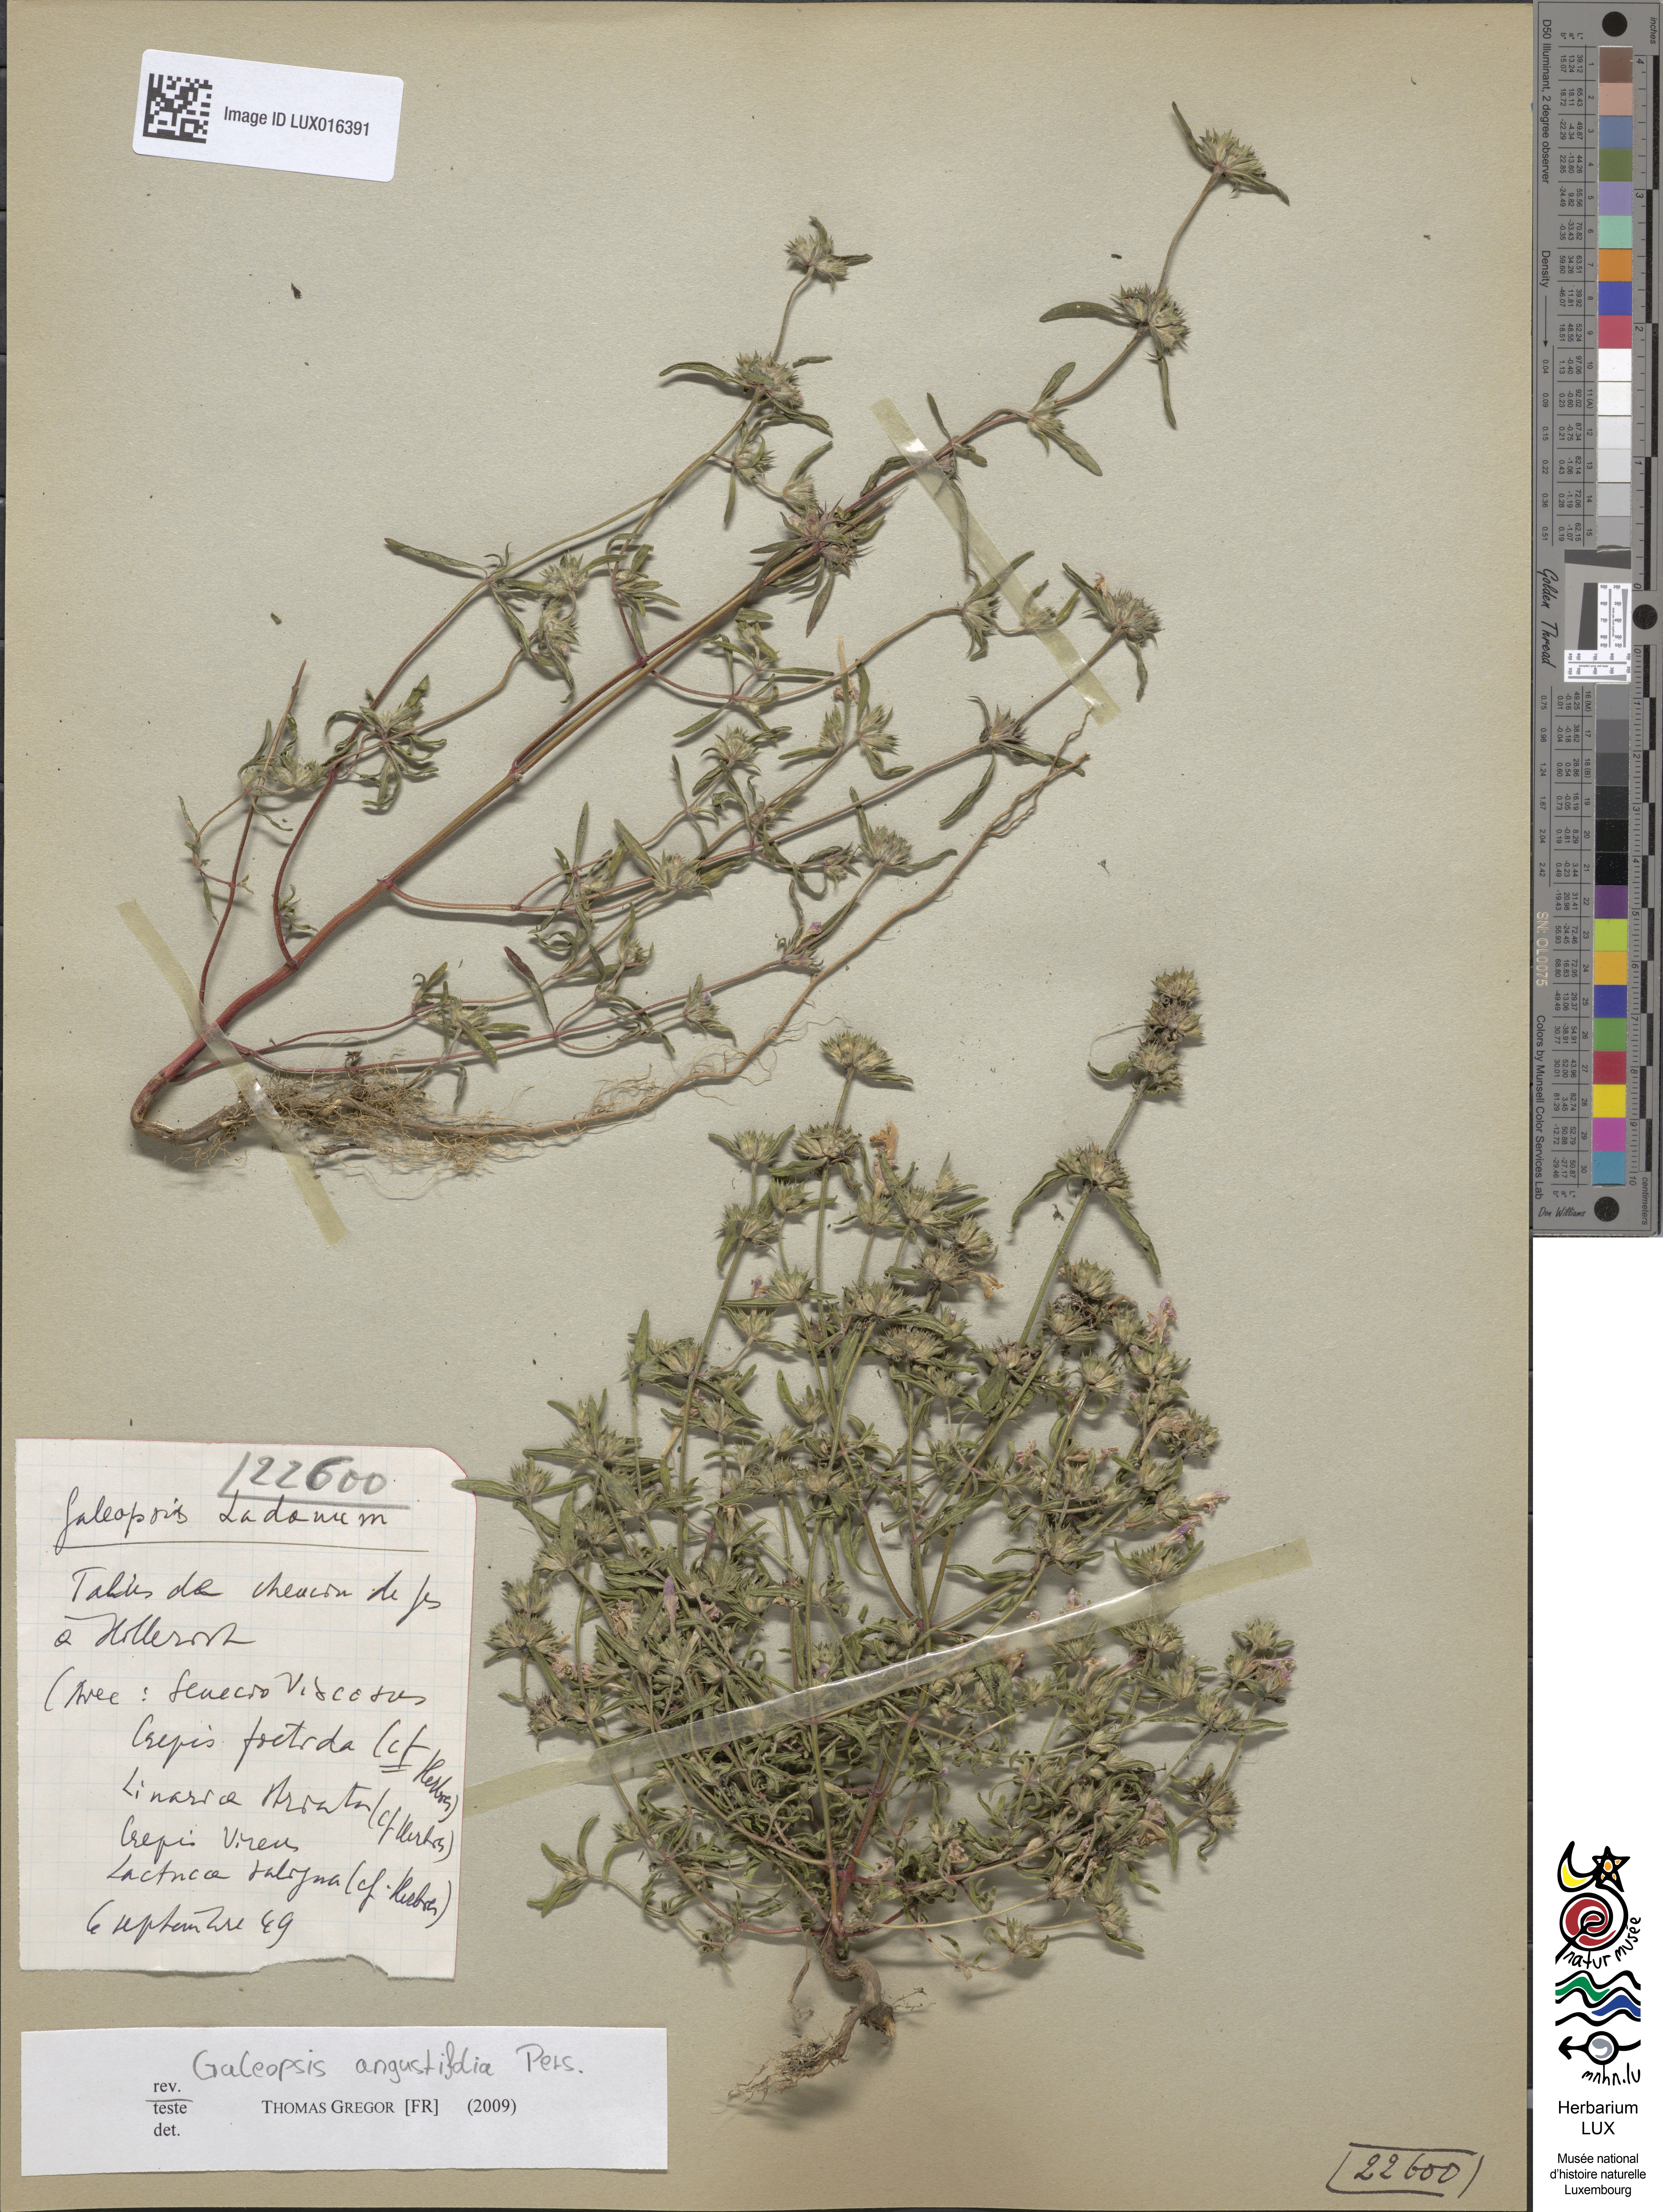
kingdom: Plantae
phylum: Tracheophyta
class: Magnoliopsida
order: Lamiales
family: Lamiaceae
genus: Galeopsis
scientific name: Galeopsis angustifolia
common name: Red hemp-nettle
